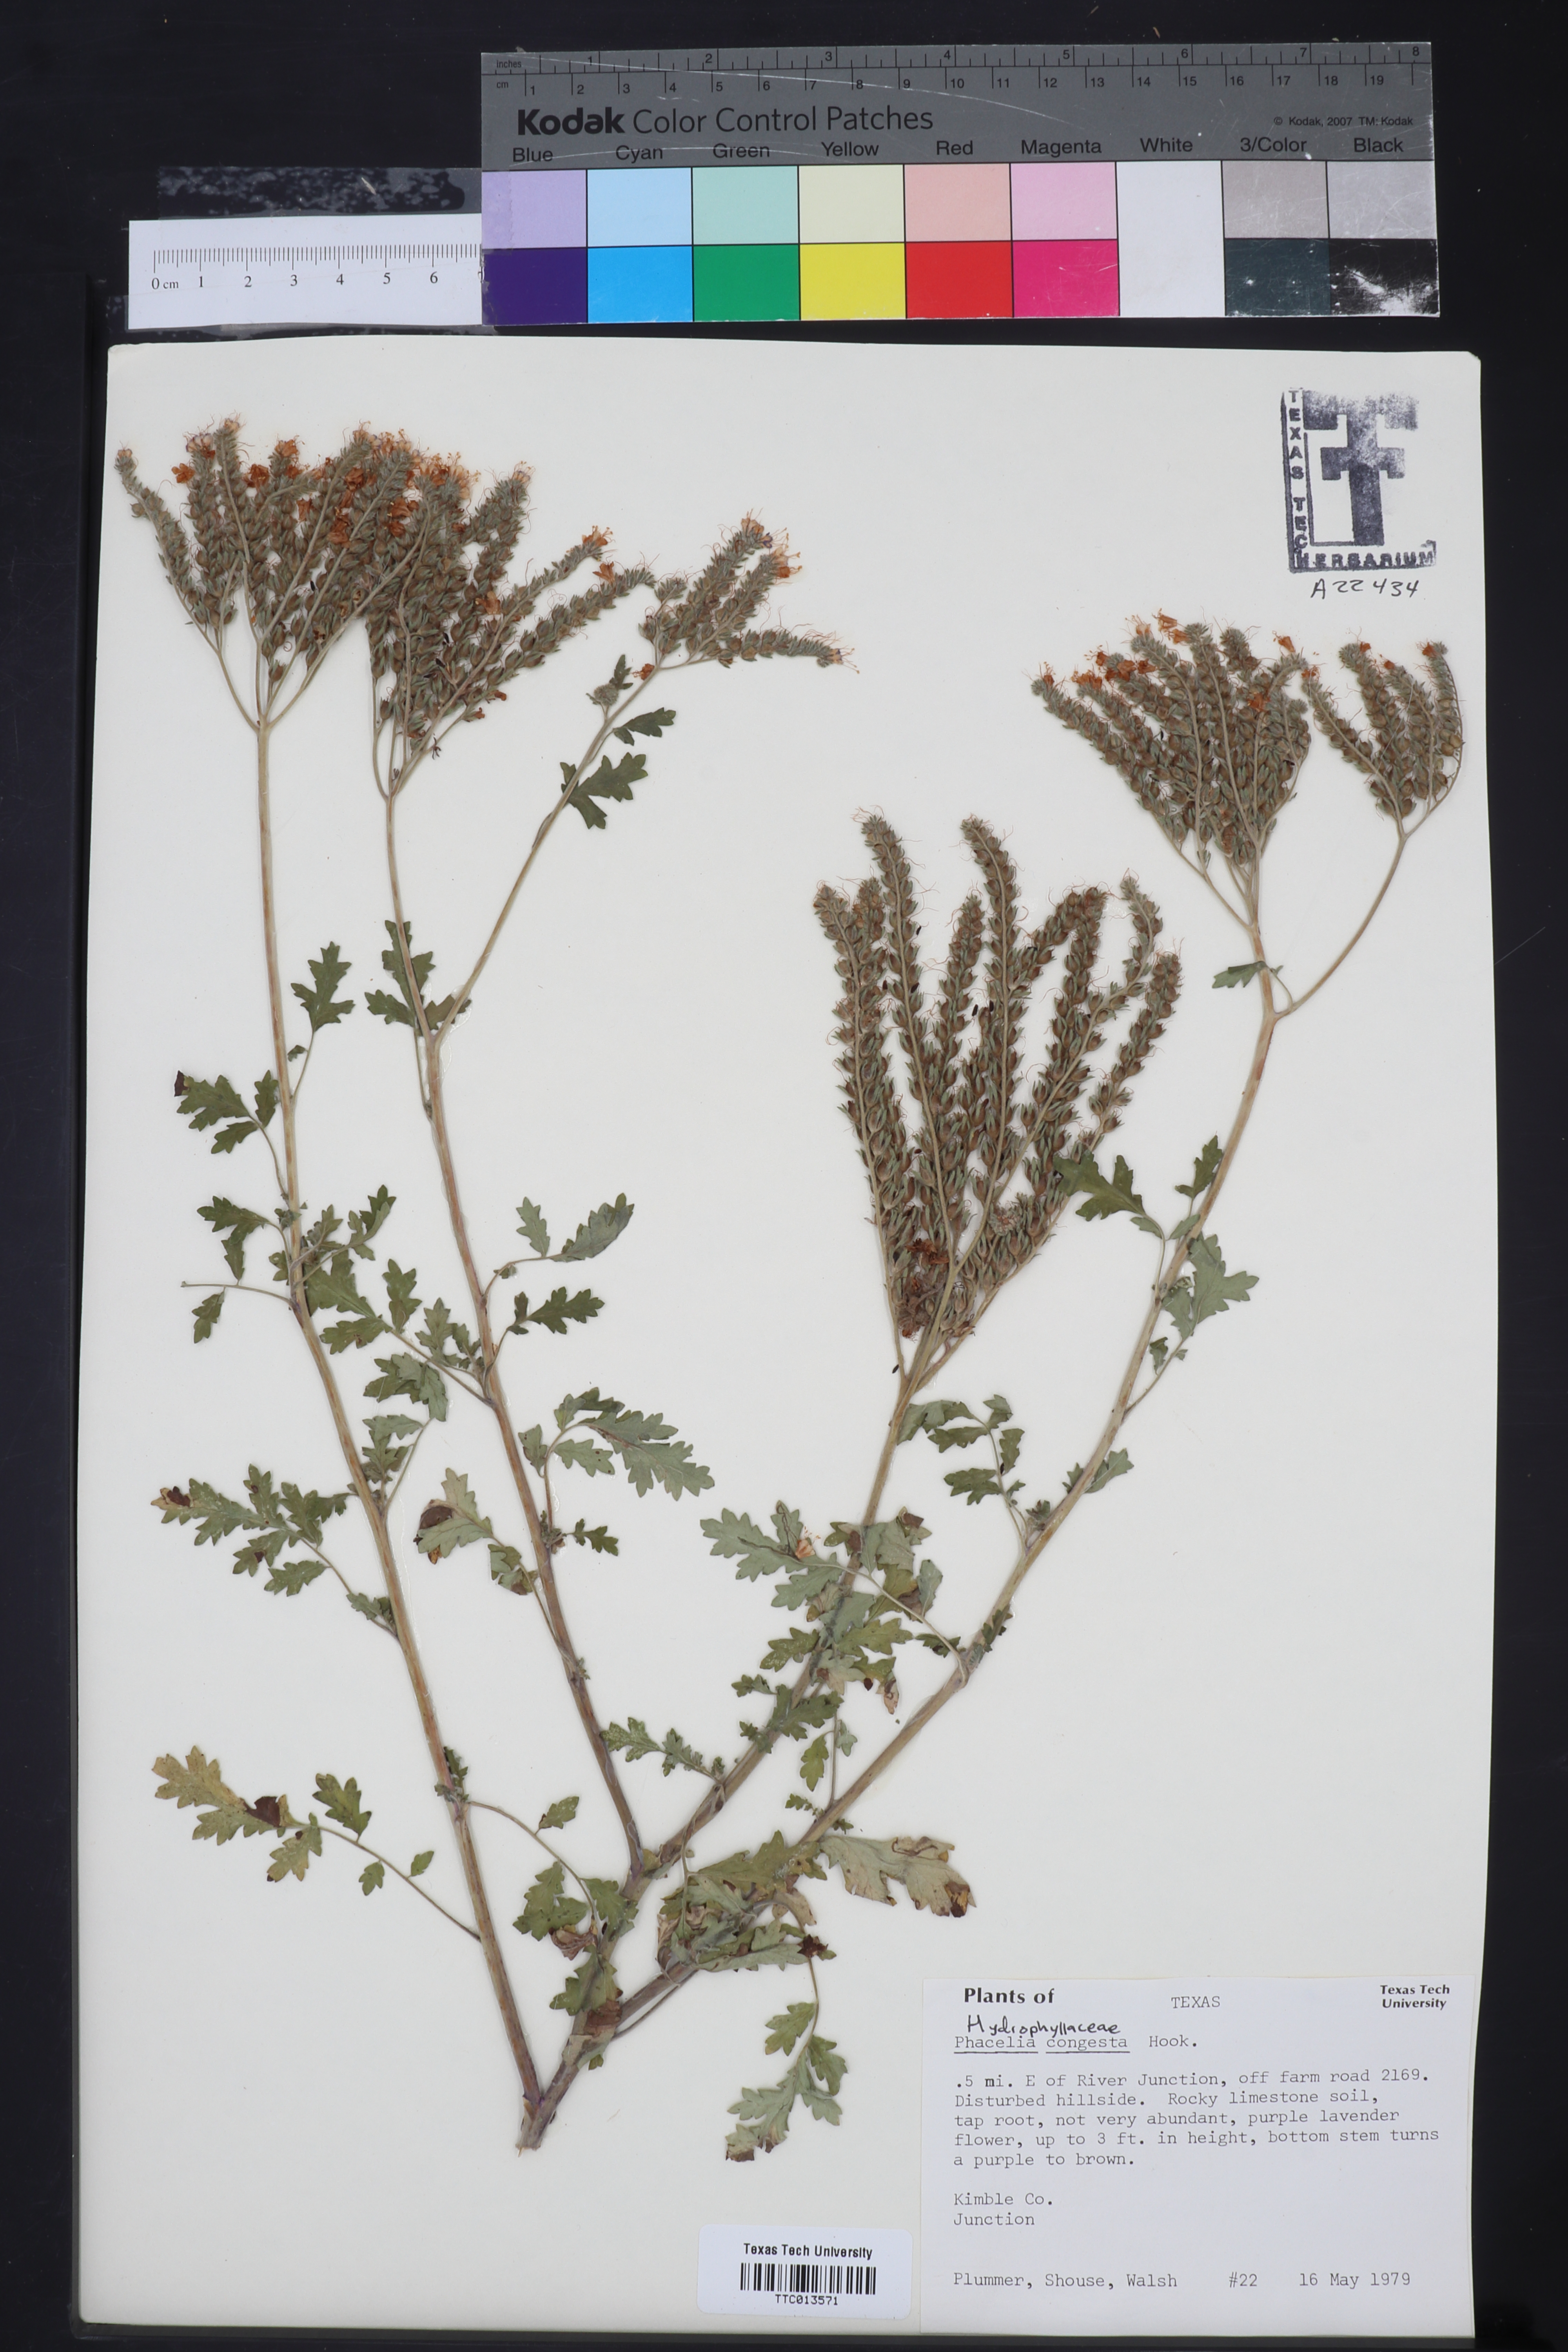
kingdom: Plantae
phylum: Tracheophyta
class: Magnoliopsida
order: Boraginales
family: Hydrophyllaceae
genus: Phacelia
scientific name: Phacelia congesta
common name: Blue curls
